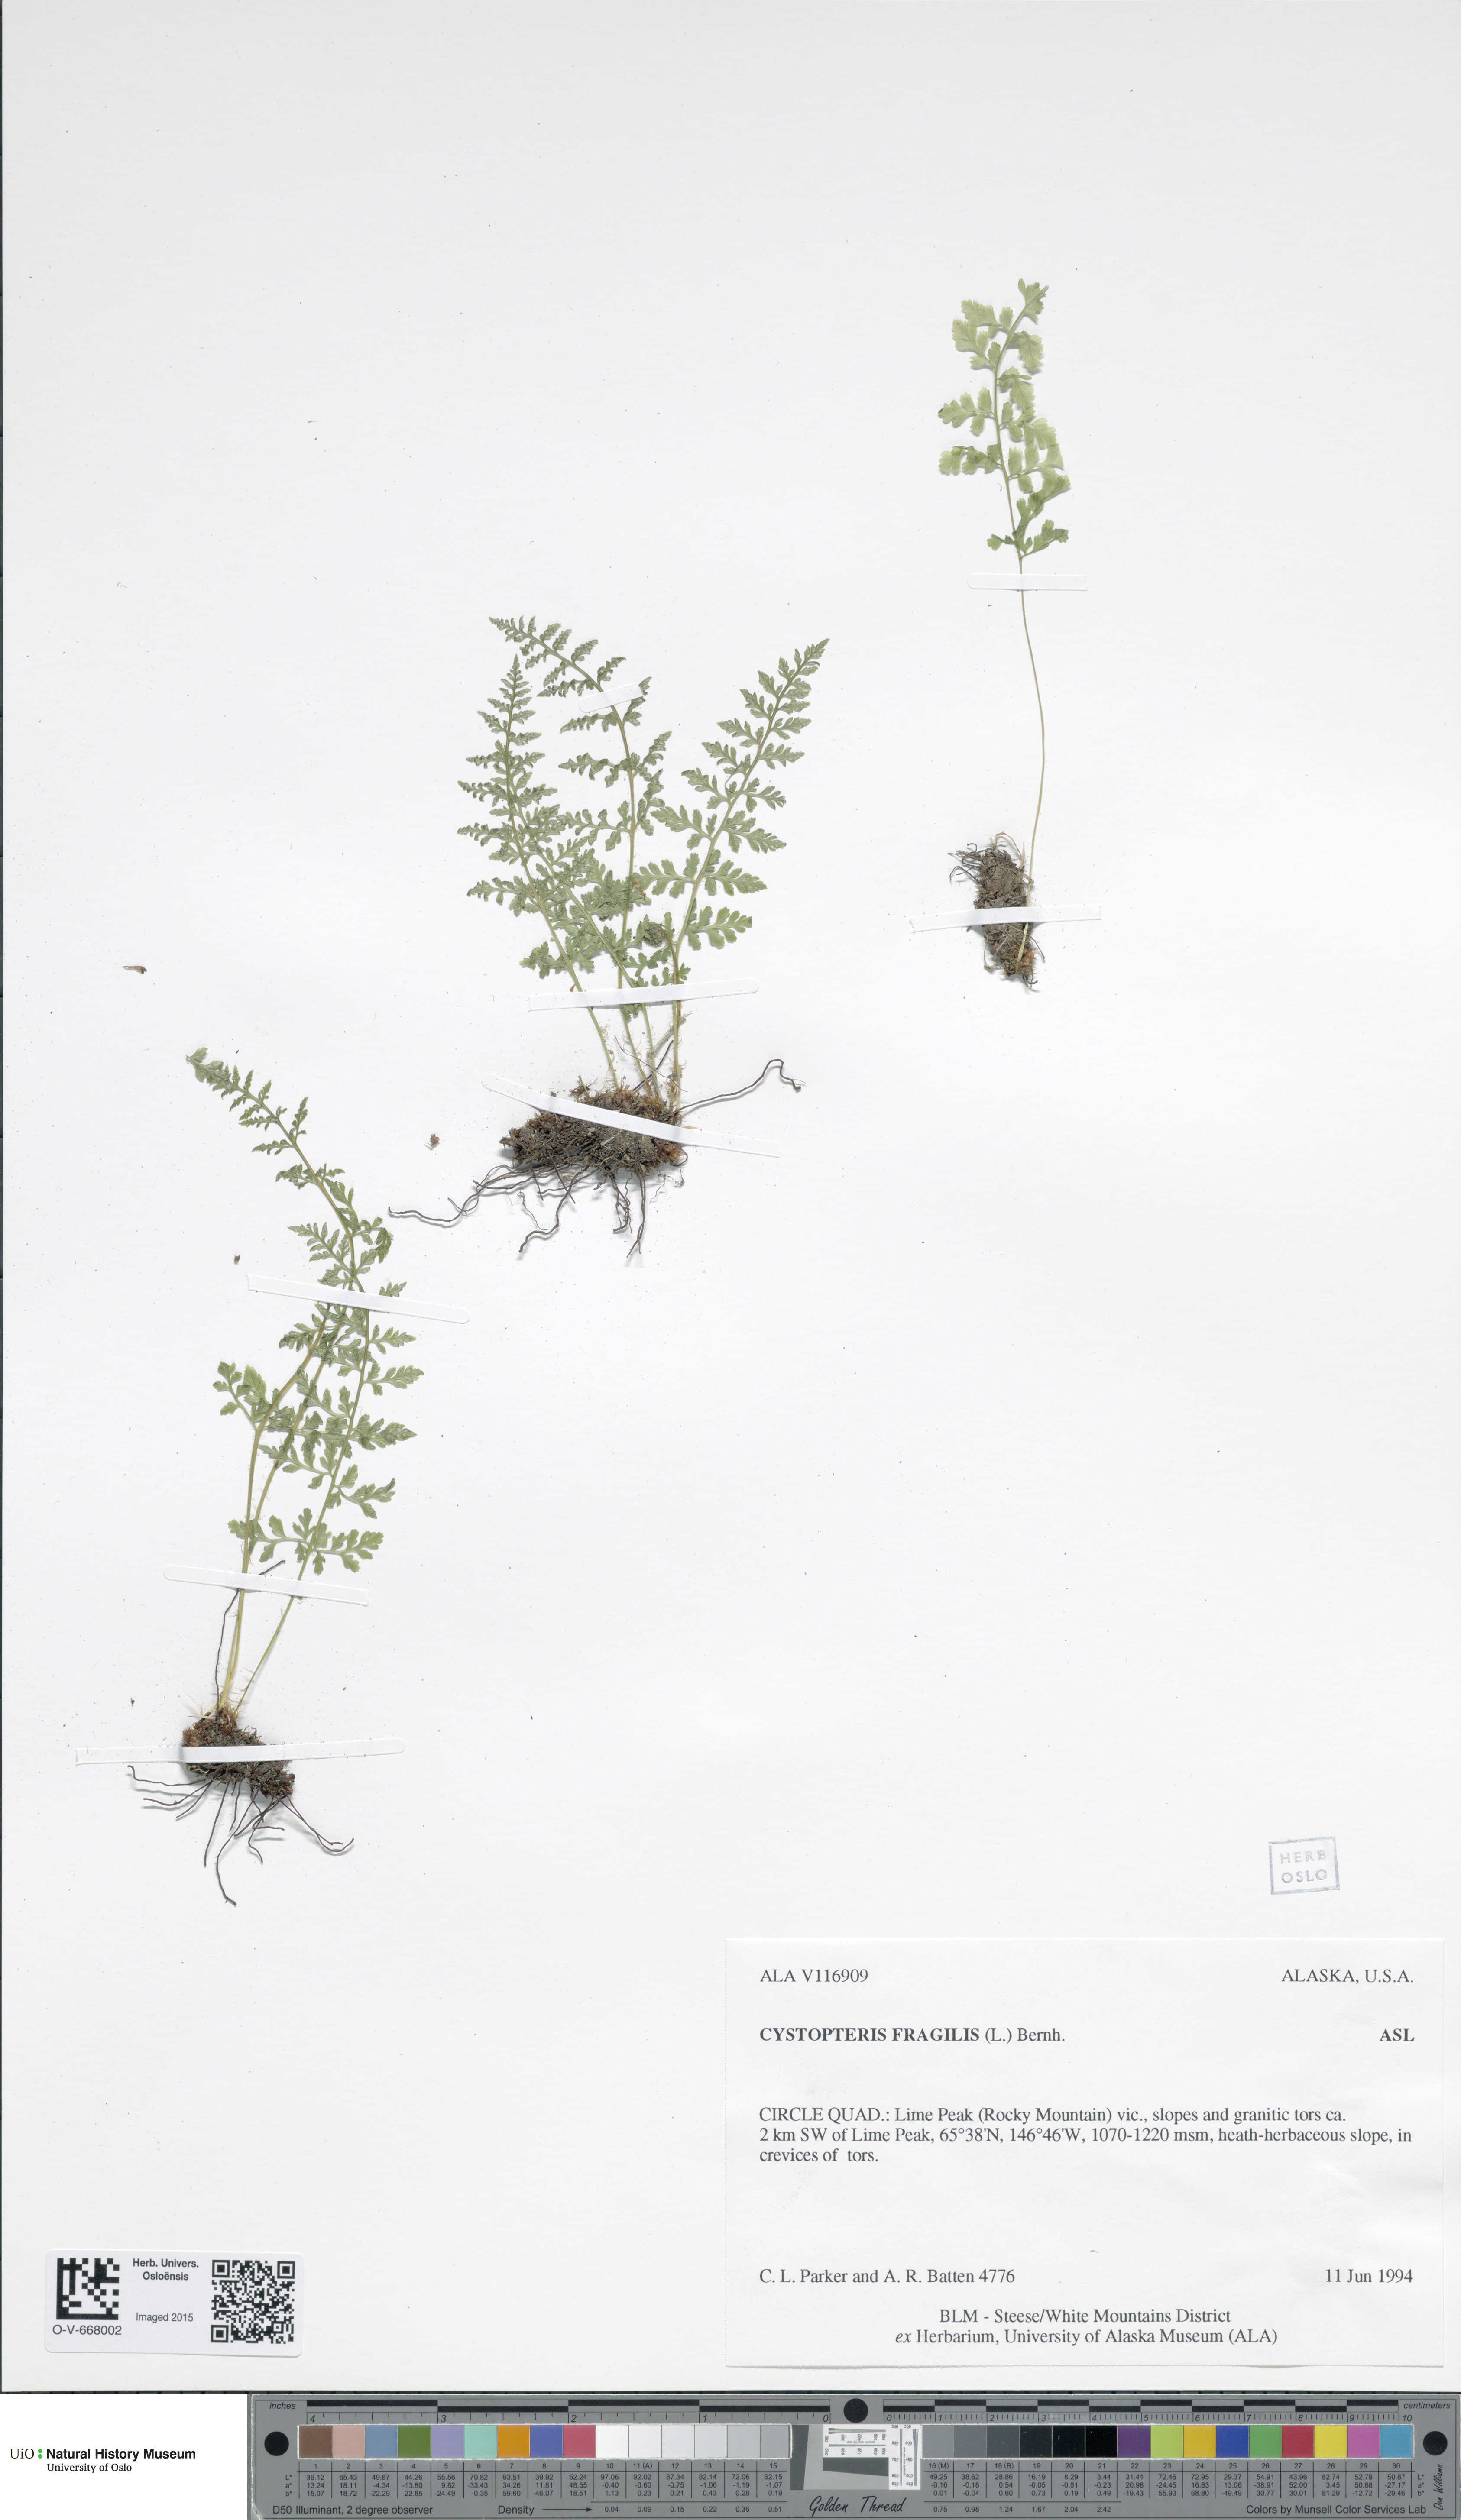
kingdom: Plantae
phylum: Tracheophyta
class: Polypodiopsida
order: Polypodiales
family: Cystopteridaceae
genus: Cystopteris
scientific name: Cystopteris fragilis
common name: Brittle bladder fern
